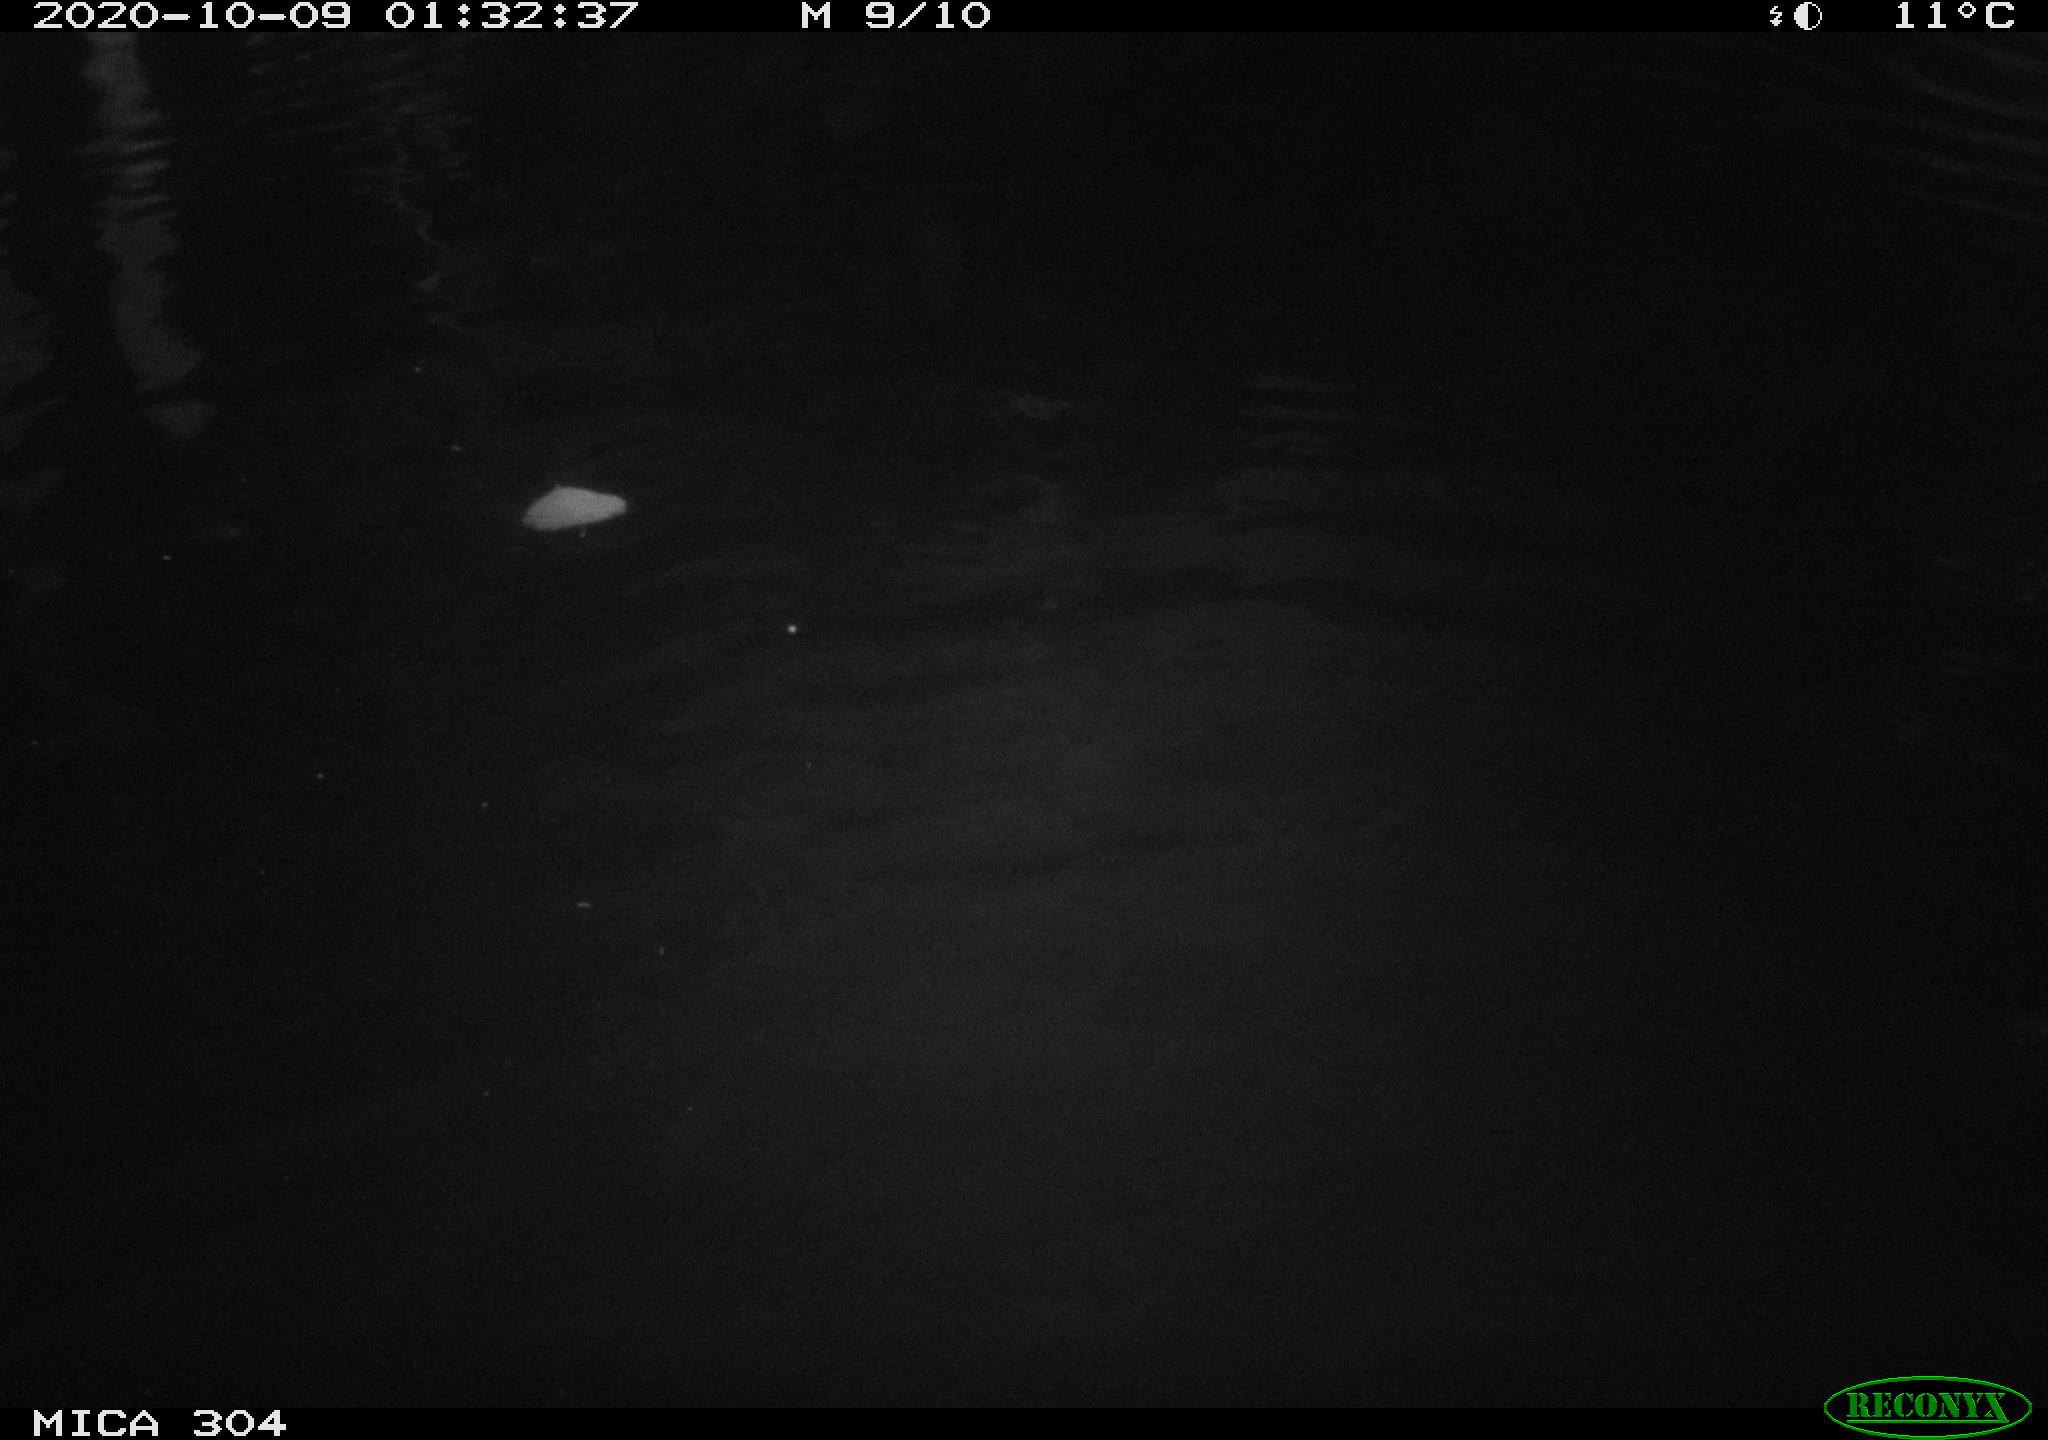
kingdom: Animalia
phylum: Chordata
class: Mammalia
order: Rodentia
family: Cricetidae
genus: Ondatra
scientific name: Ondatra zibethicus
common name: Muskrat
